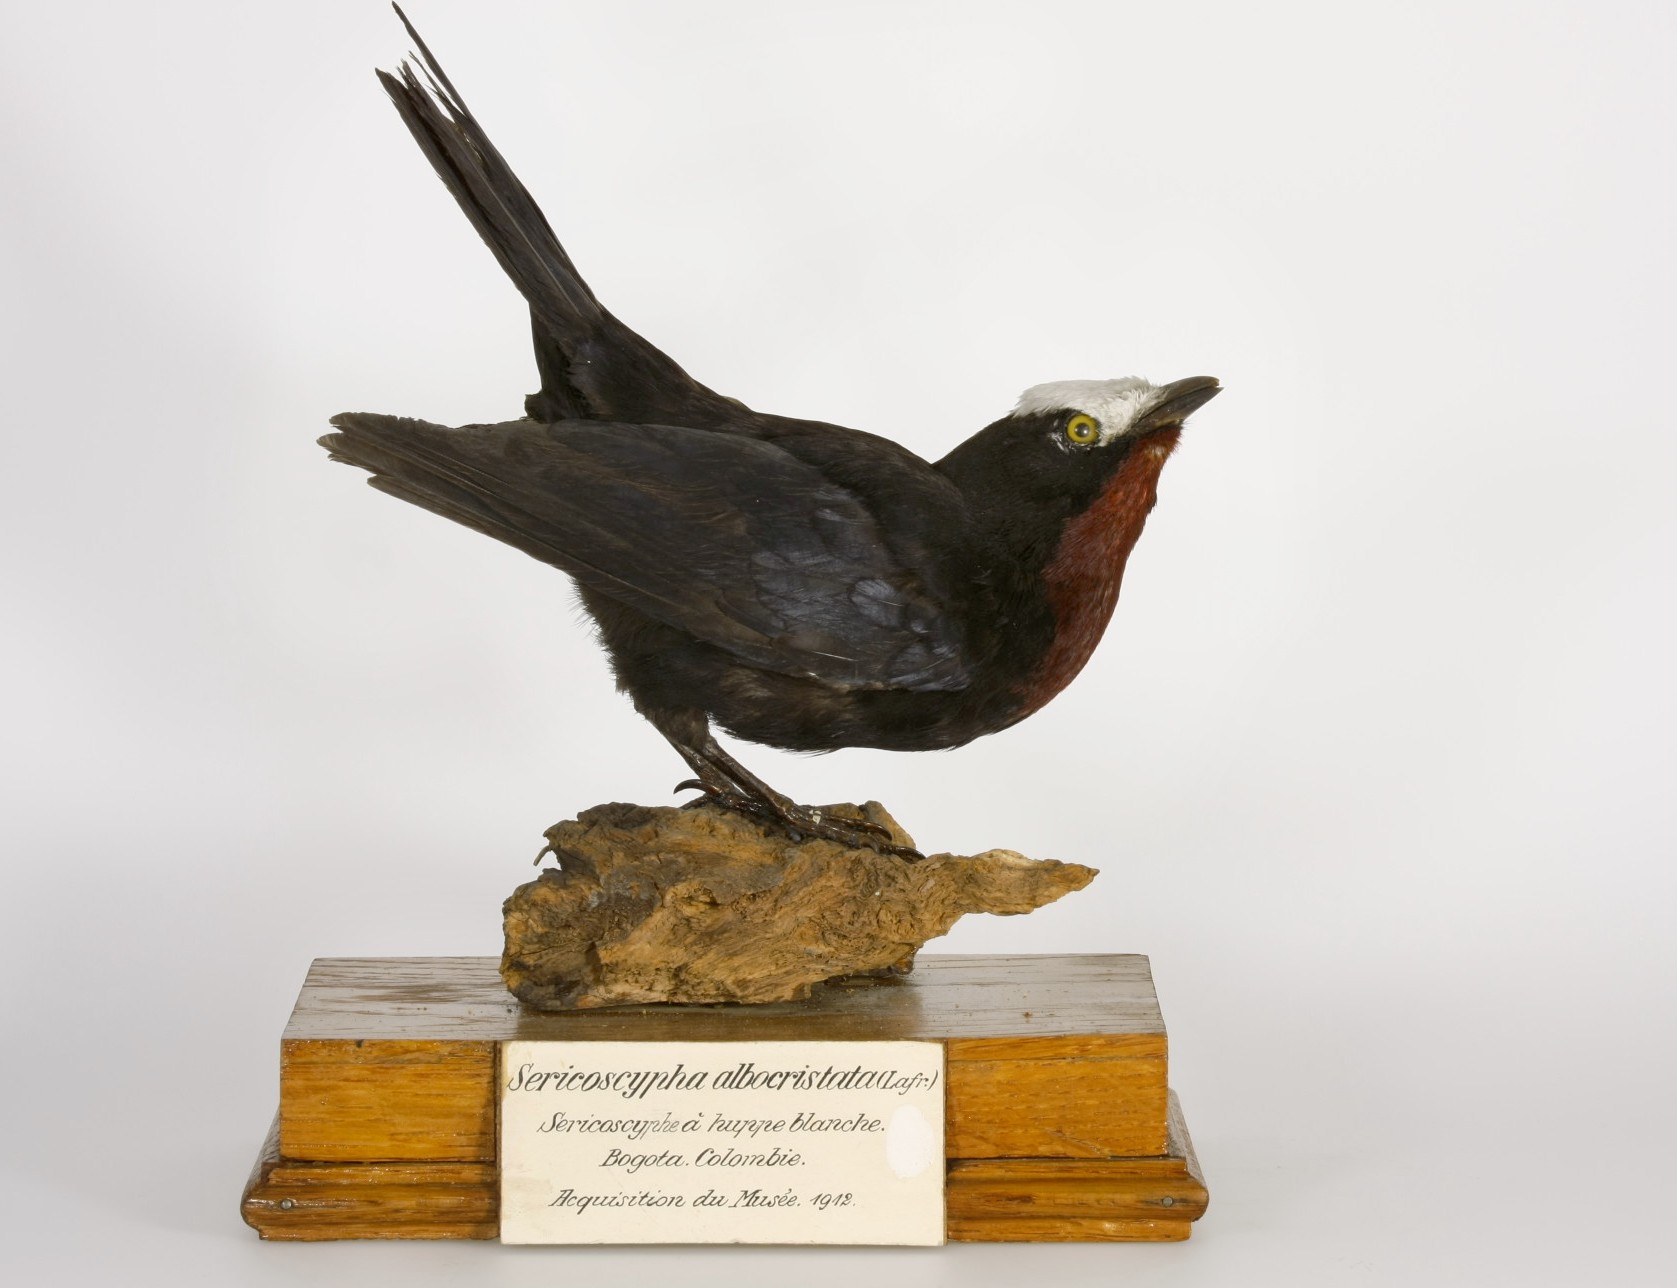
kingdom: Animalia
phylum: Chordata
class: Aves
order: Passeriformes
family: Thraupidae
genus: Sericossypha
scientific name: Sericossypha albocristata
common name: White-capped tanager
